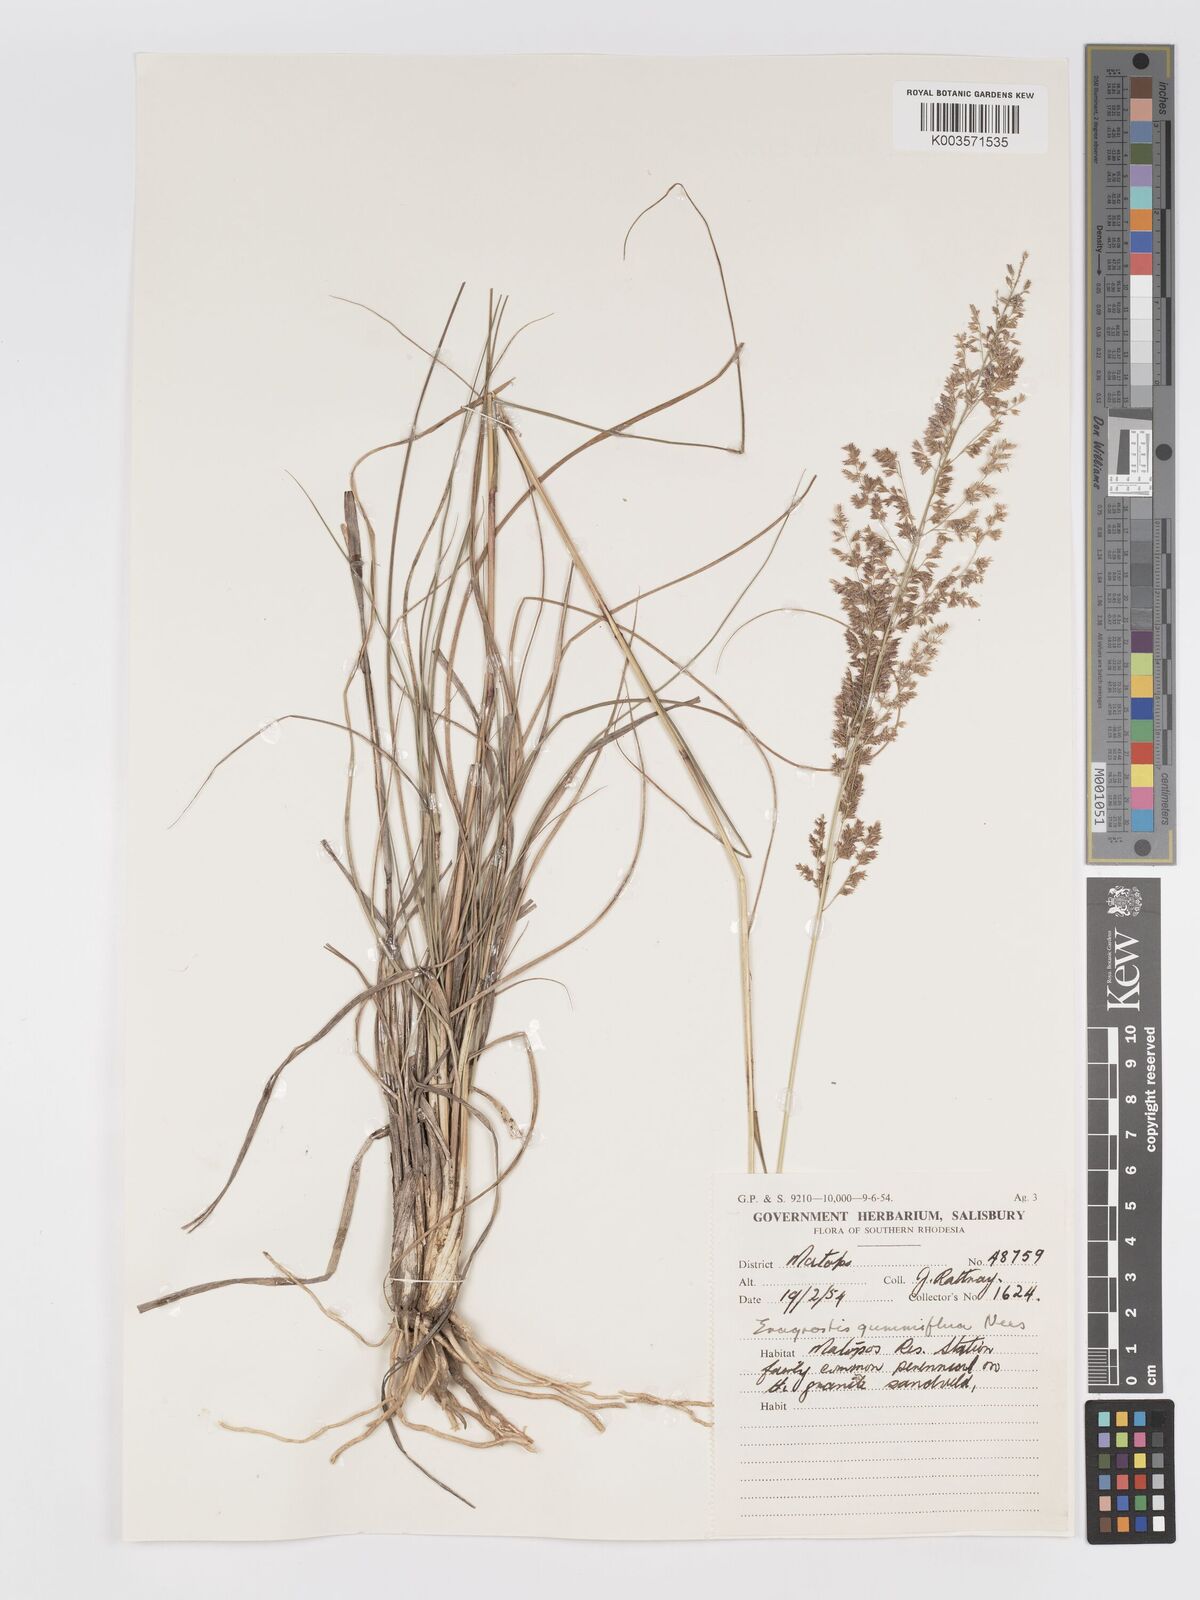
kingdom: Plantae
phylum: Tracheophyta
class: Liliopsida
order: Poales
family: Poaceae
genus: Eragrostis
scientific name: Eragrostis gummiflua
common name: Gum grass
